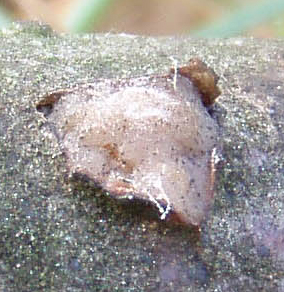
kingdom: Fungi
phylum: Basidiomycota
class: Pucciniomycetes
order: Platygloeales
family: Platygloeaceae
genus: Platygloea
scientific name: Platygloea disciformis
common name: linde-slimklat
